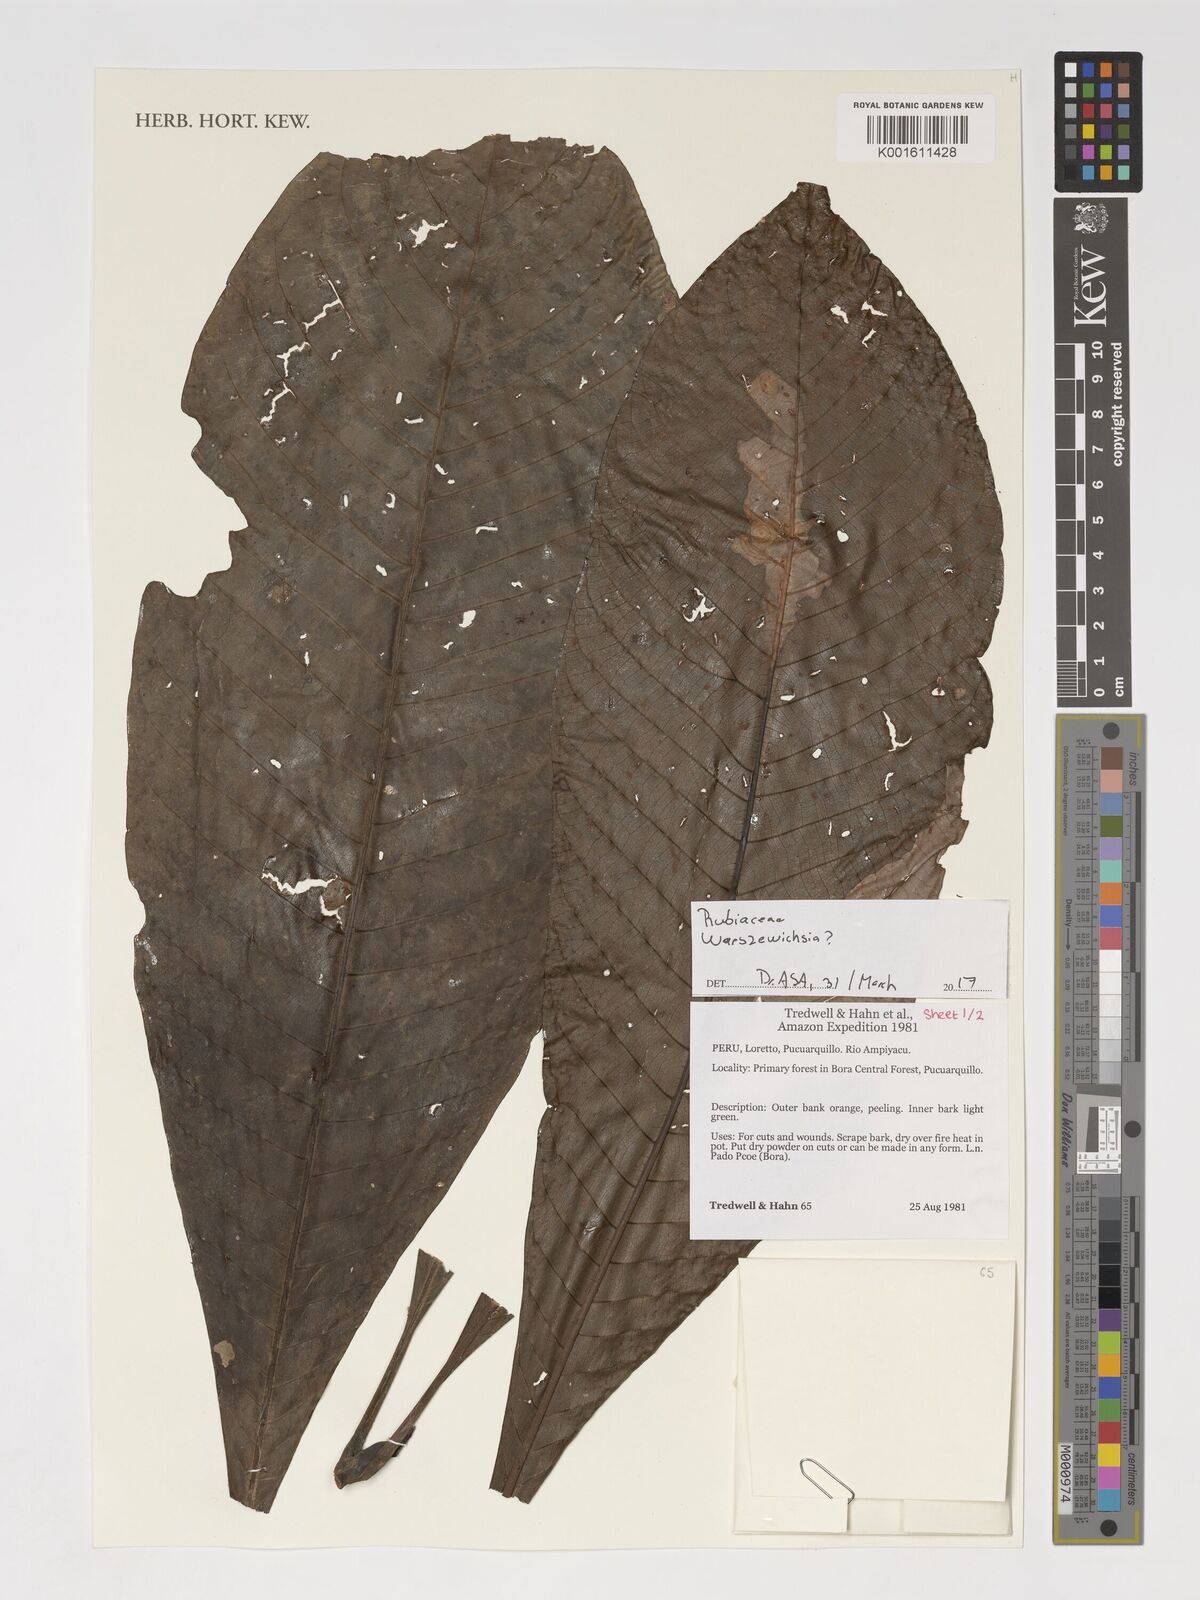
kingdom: Plantae
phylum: Tracheophyta
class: Magnoliopsida
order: Gentianales
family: Rubiaceae
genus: Warszewiczia
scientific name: Warszewiczia
